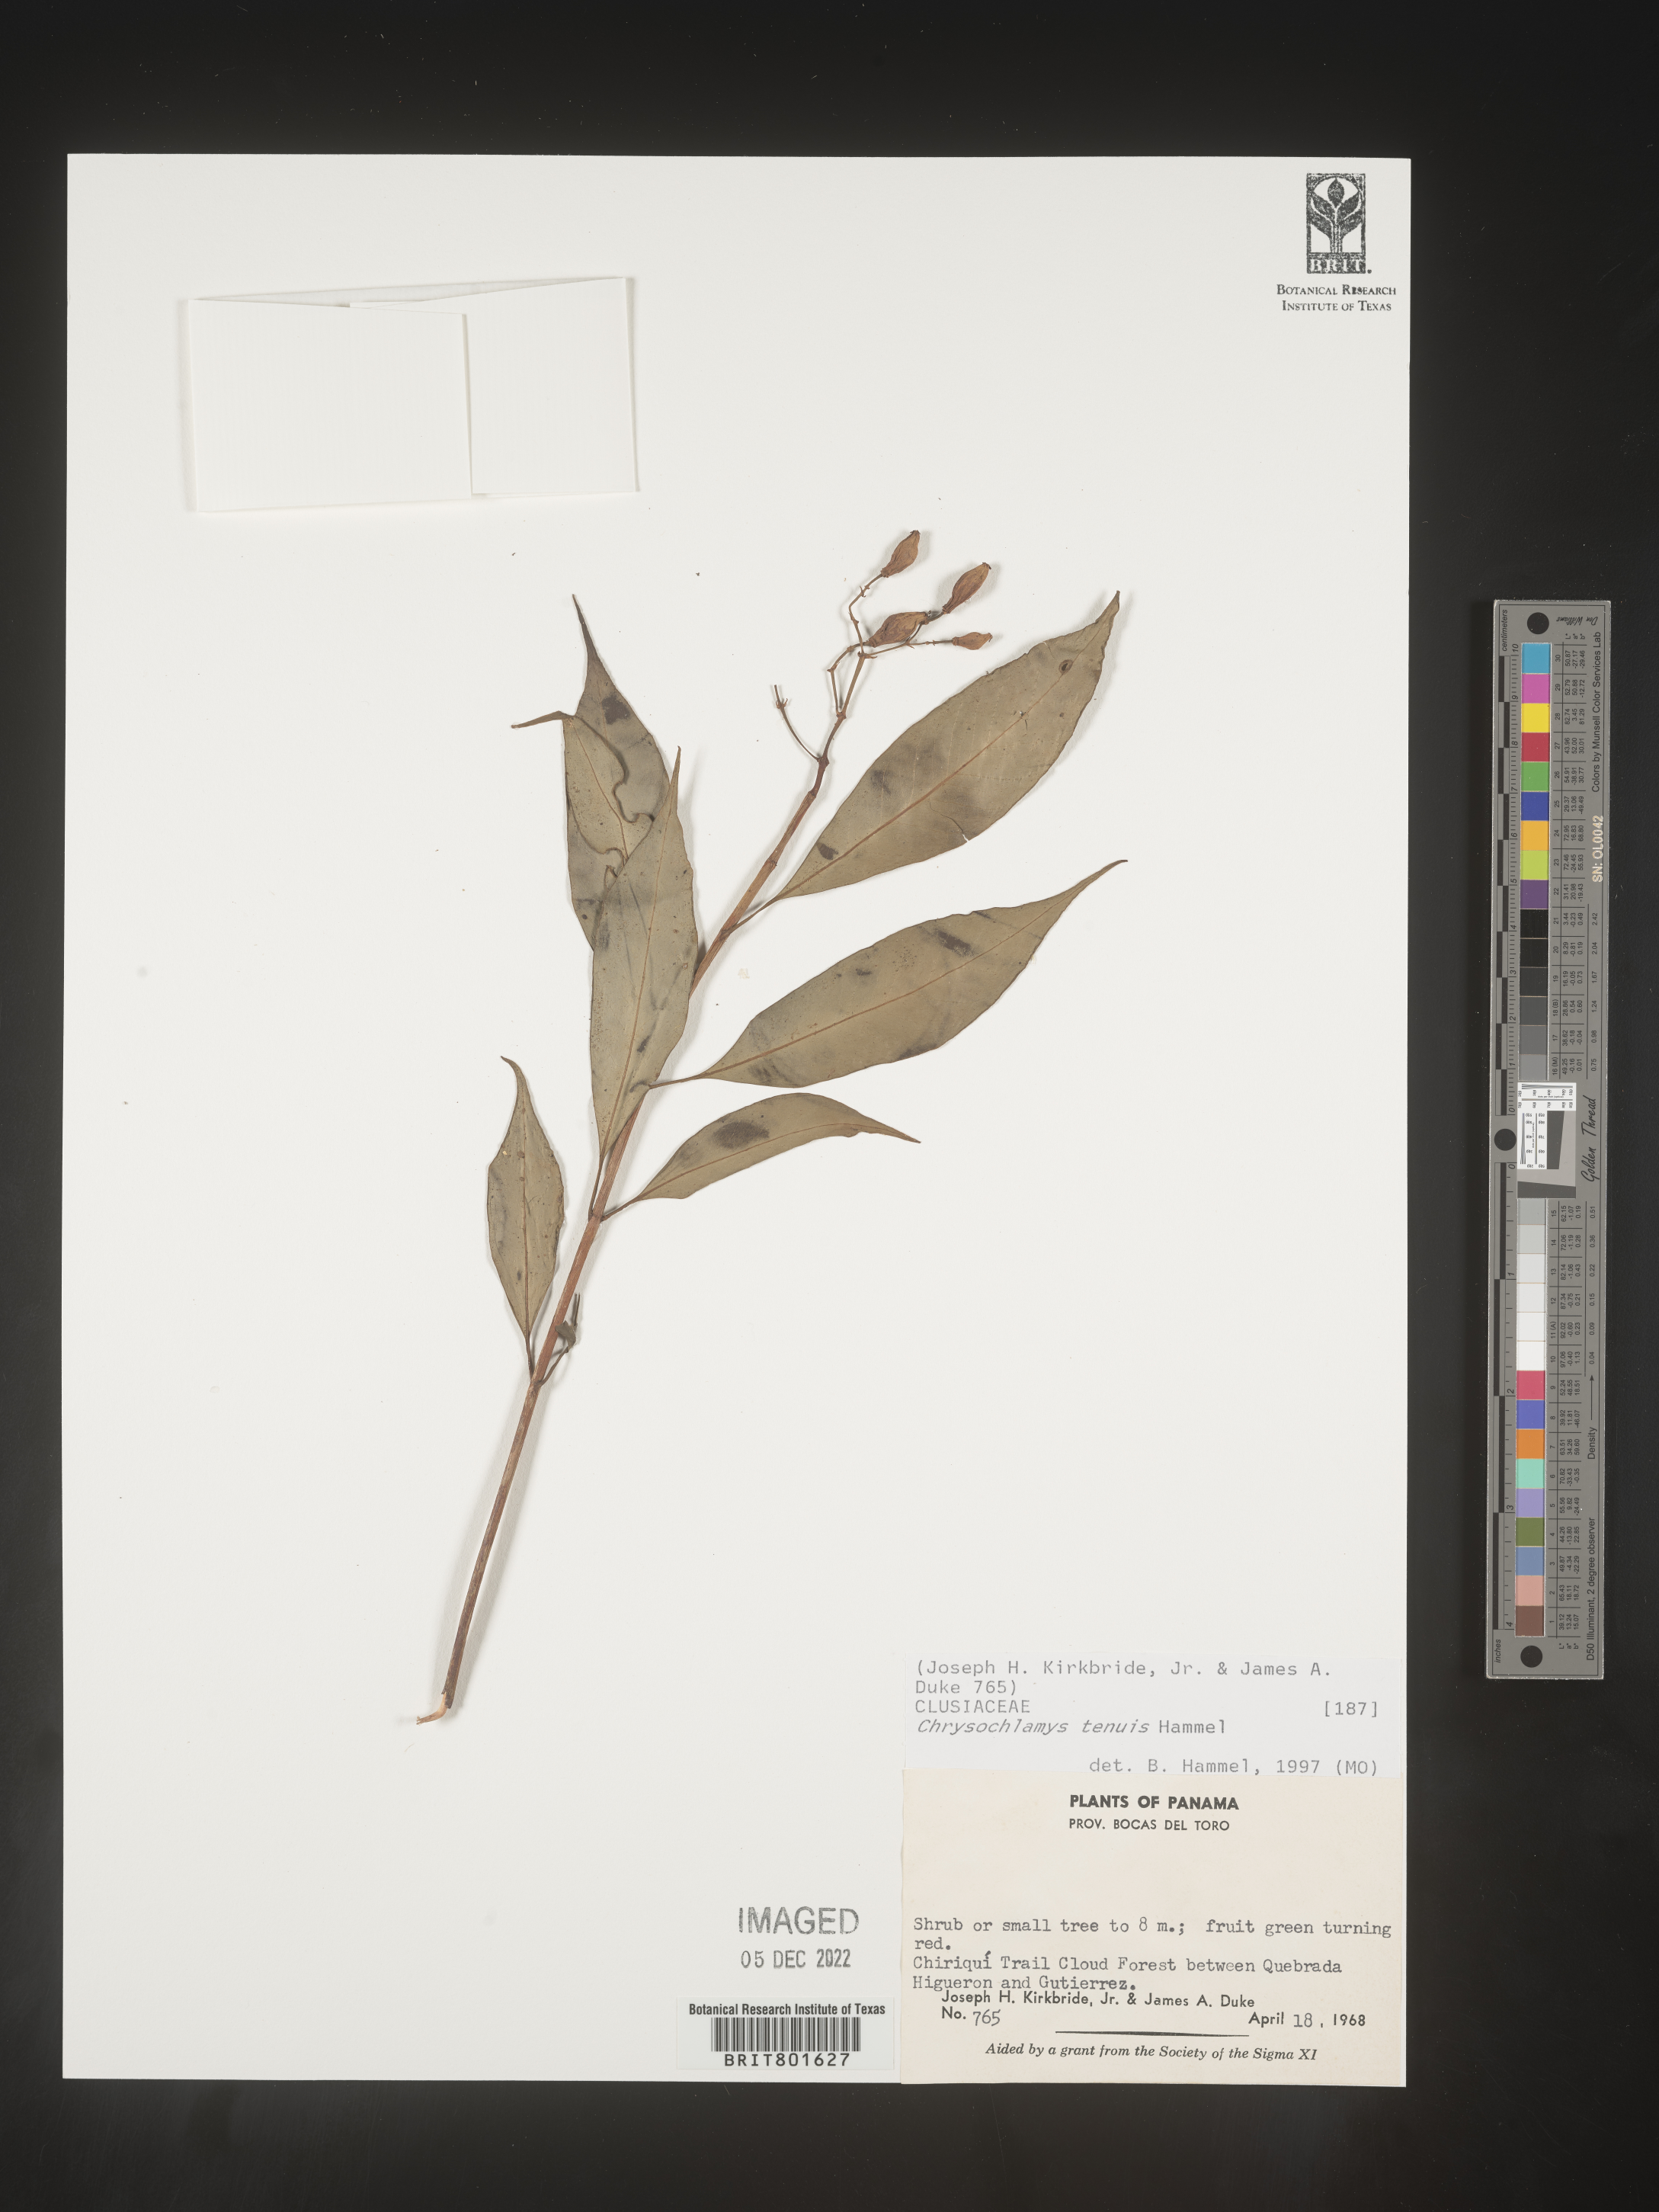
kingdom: Plantae
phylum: Tracheophyta
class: Magnoliopsida
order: Malpighiales
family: Clusiaceae
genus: Chrysochlamys
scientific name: Chrysochlamys
